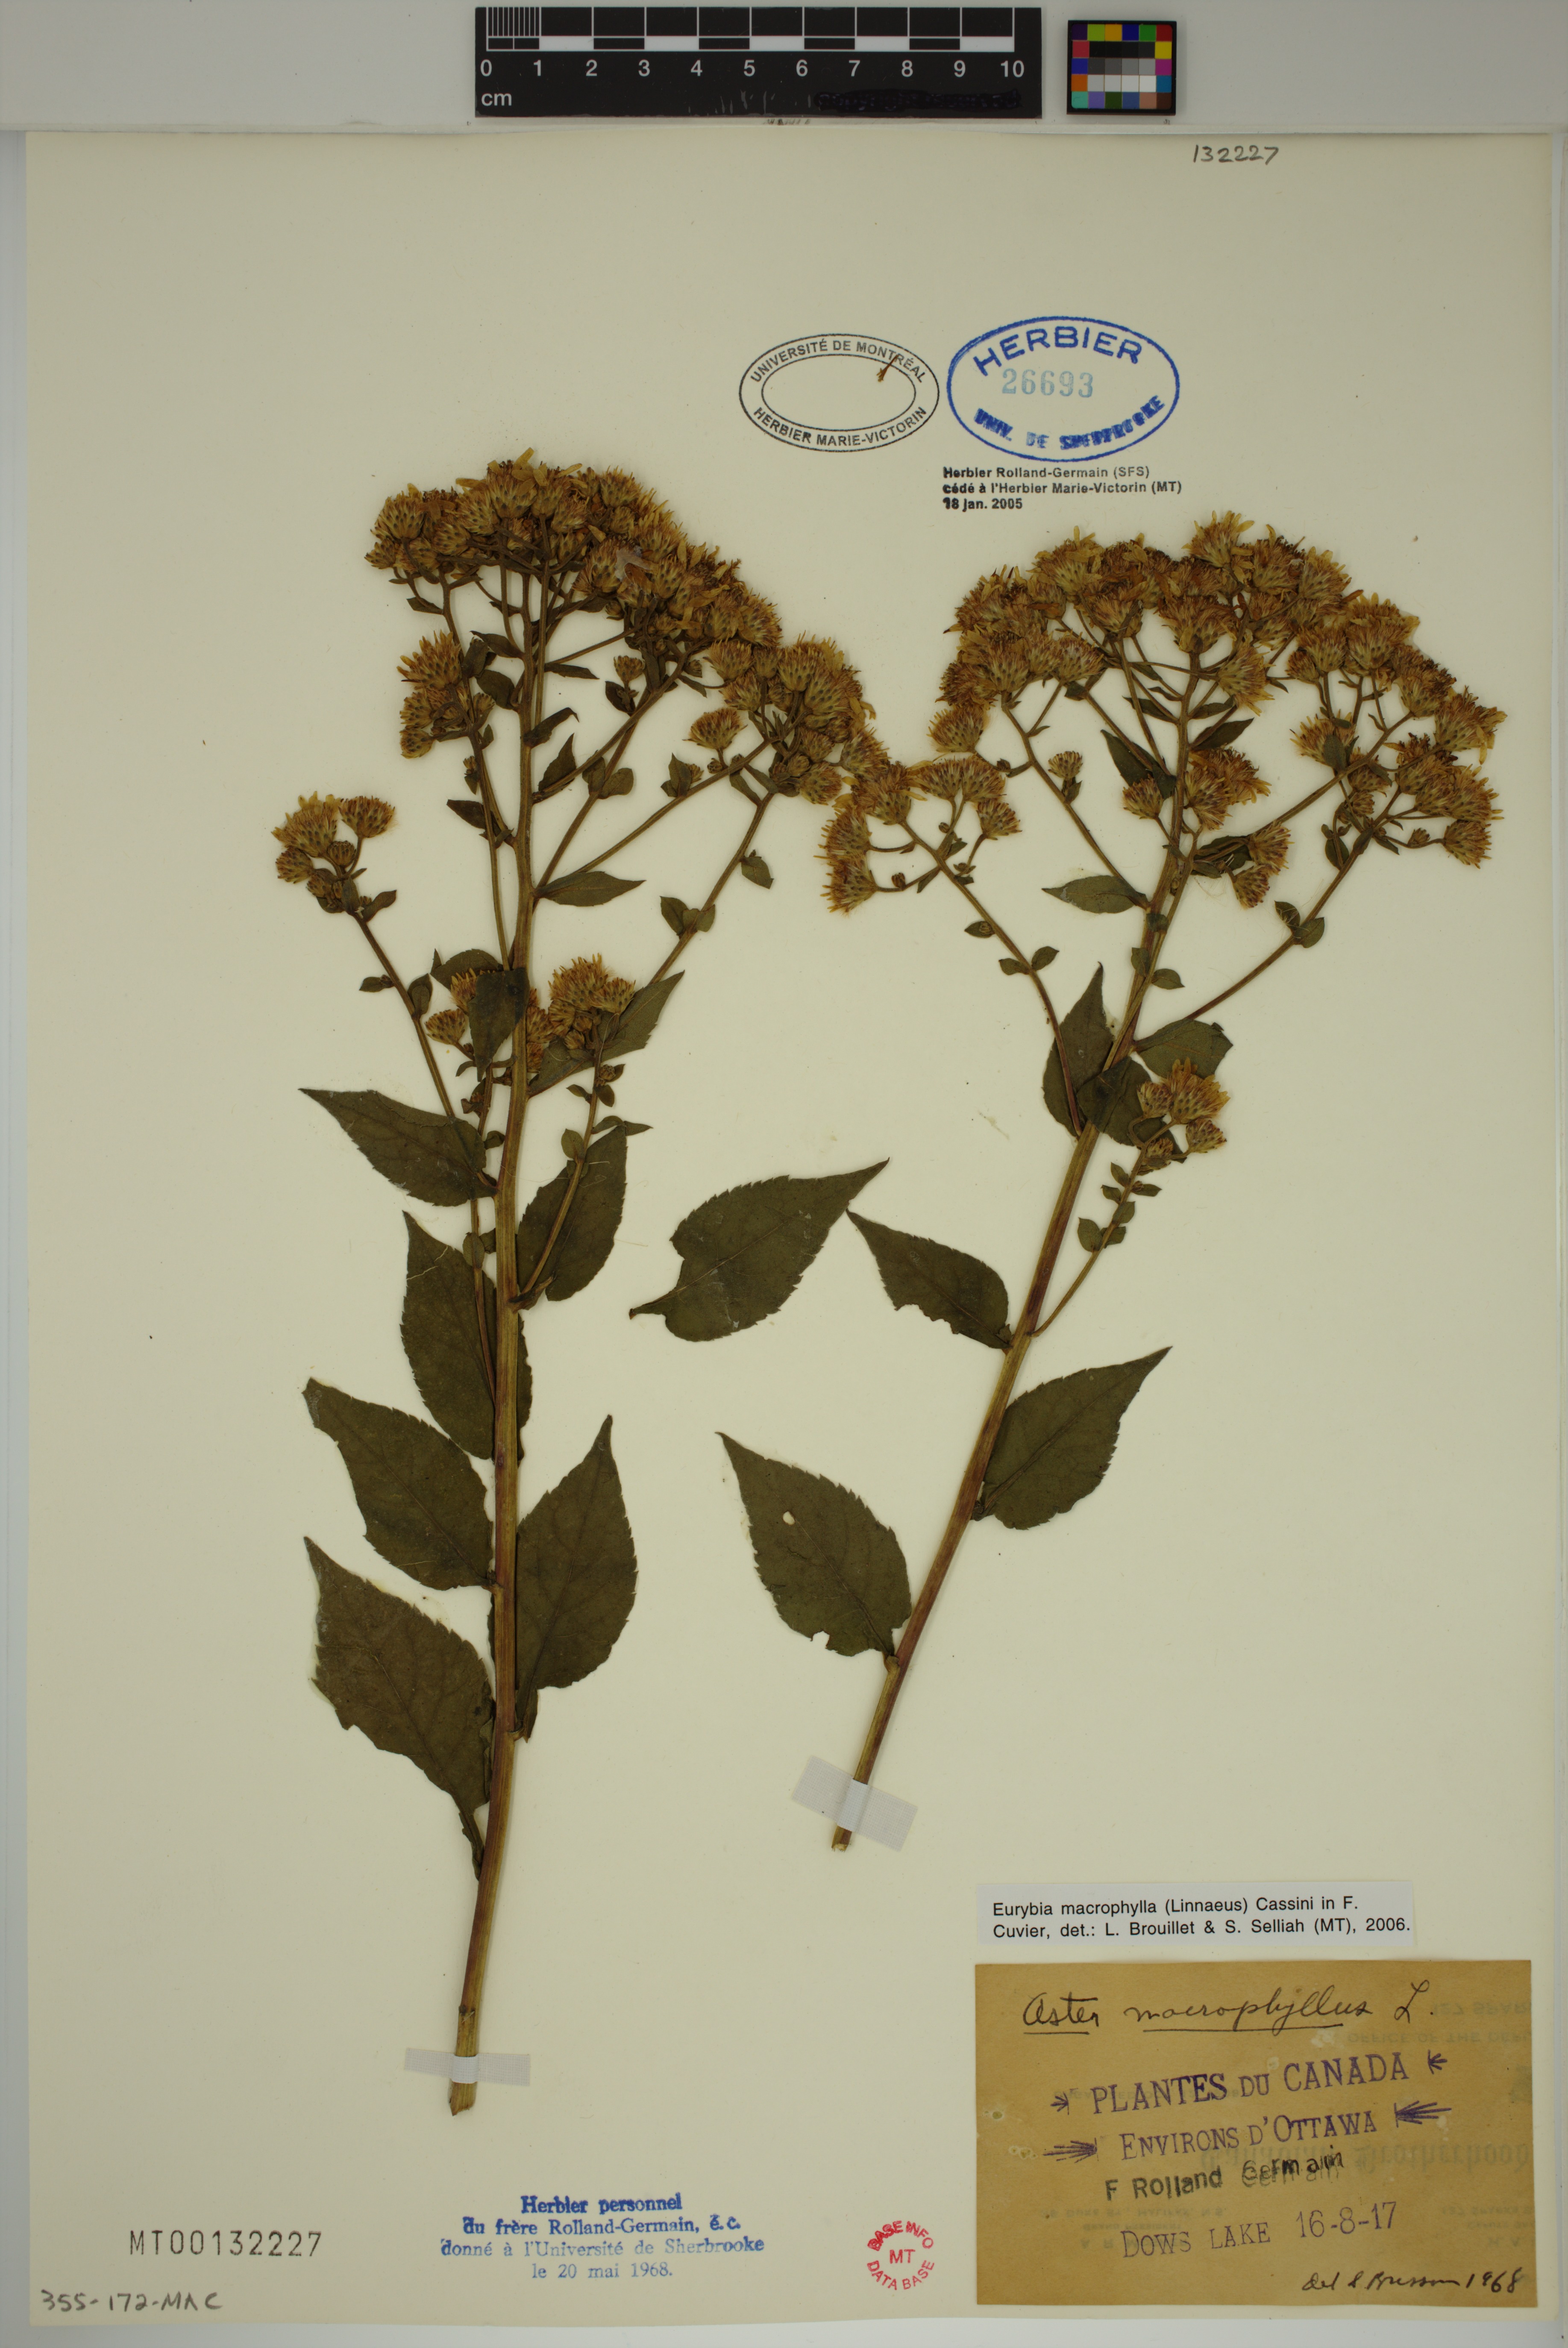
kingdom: Plantae
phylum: Tracheophyta
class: Magnoliopsida
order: Asterales
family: Asteraceae
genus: Eurybia
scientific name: Eurybia macrophylla
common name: Big-leaved aster
